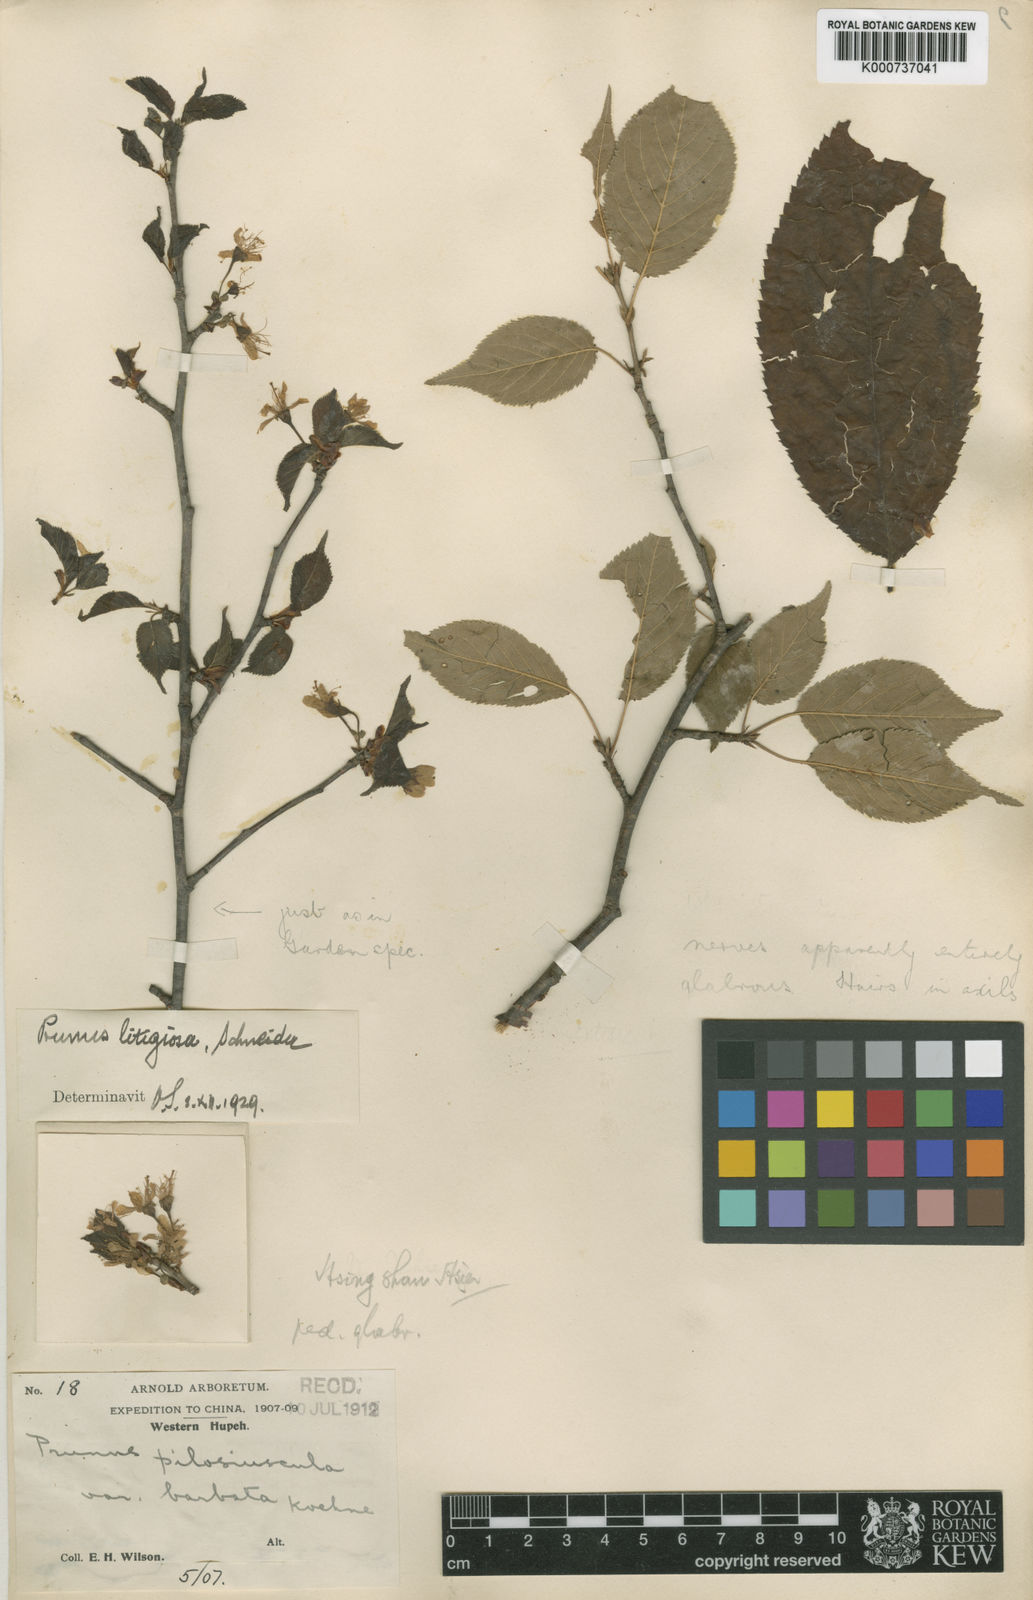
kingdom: Plantae
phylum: Tracheophyta
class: Magnoliopsida
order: Rosales
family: Rosaceae
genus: Prunus
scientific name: Prunus clarofolia
